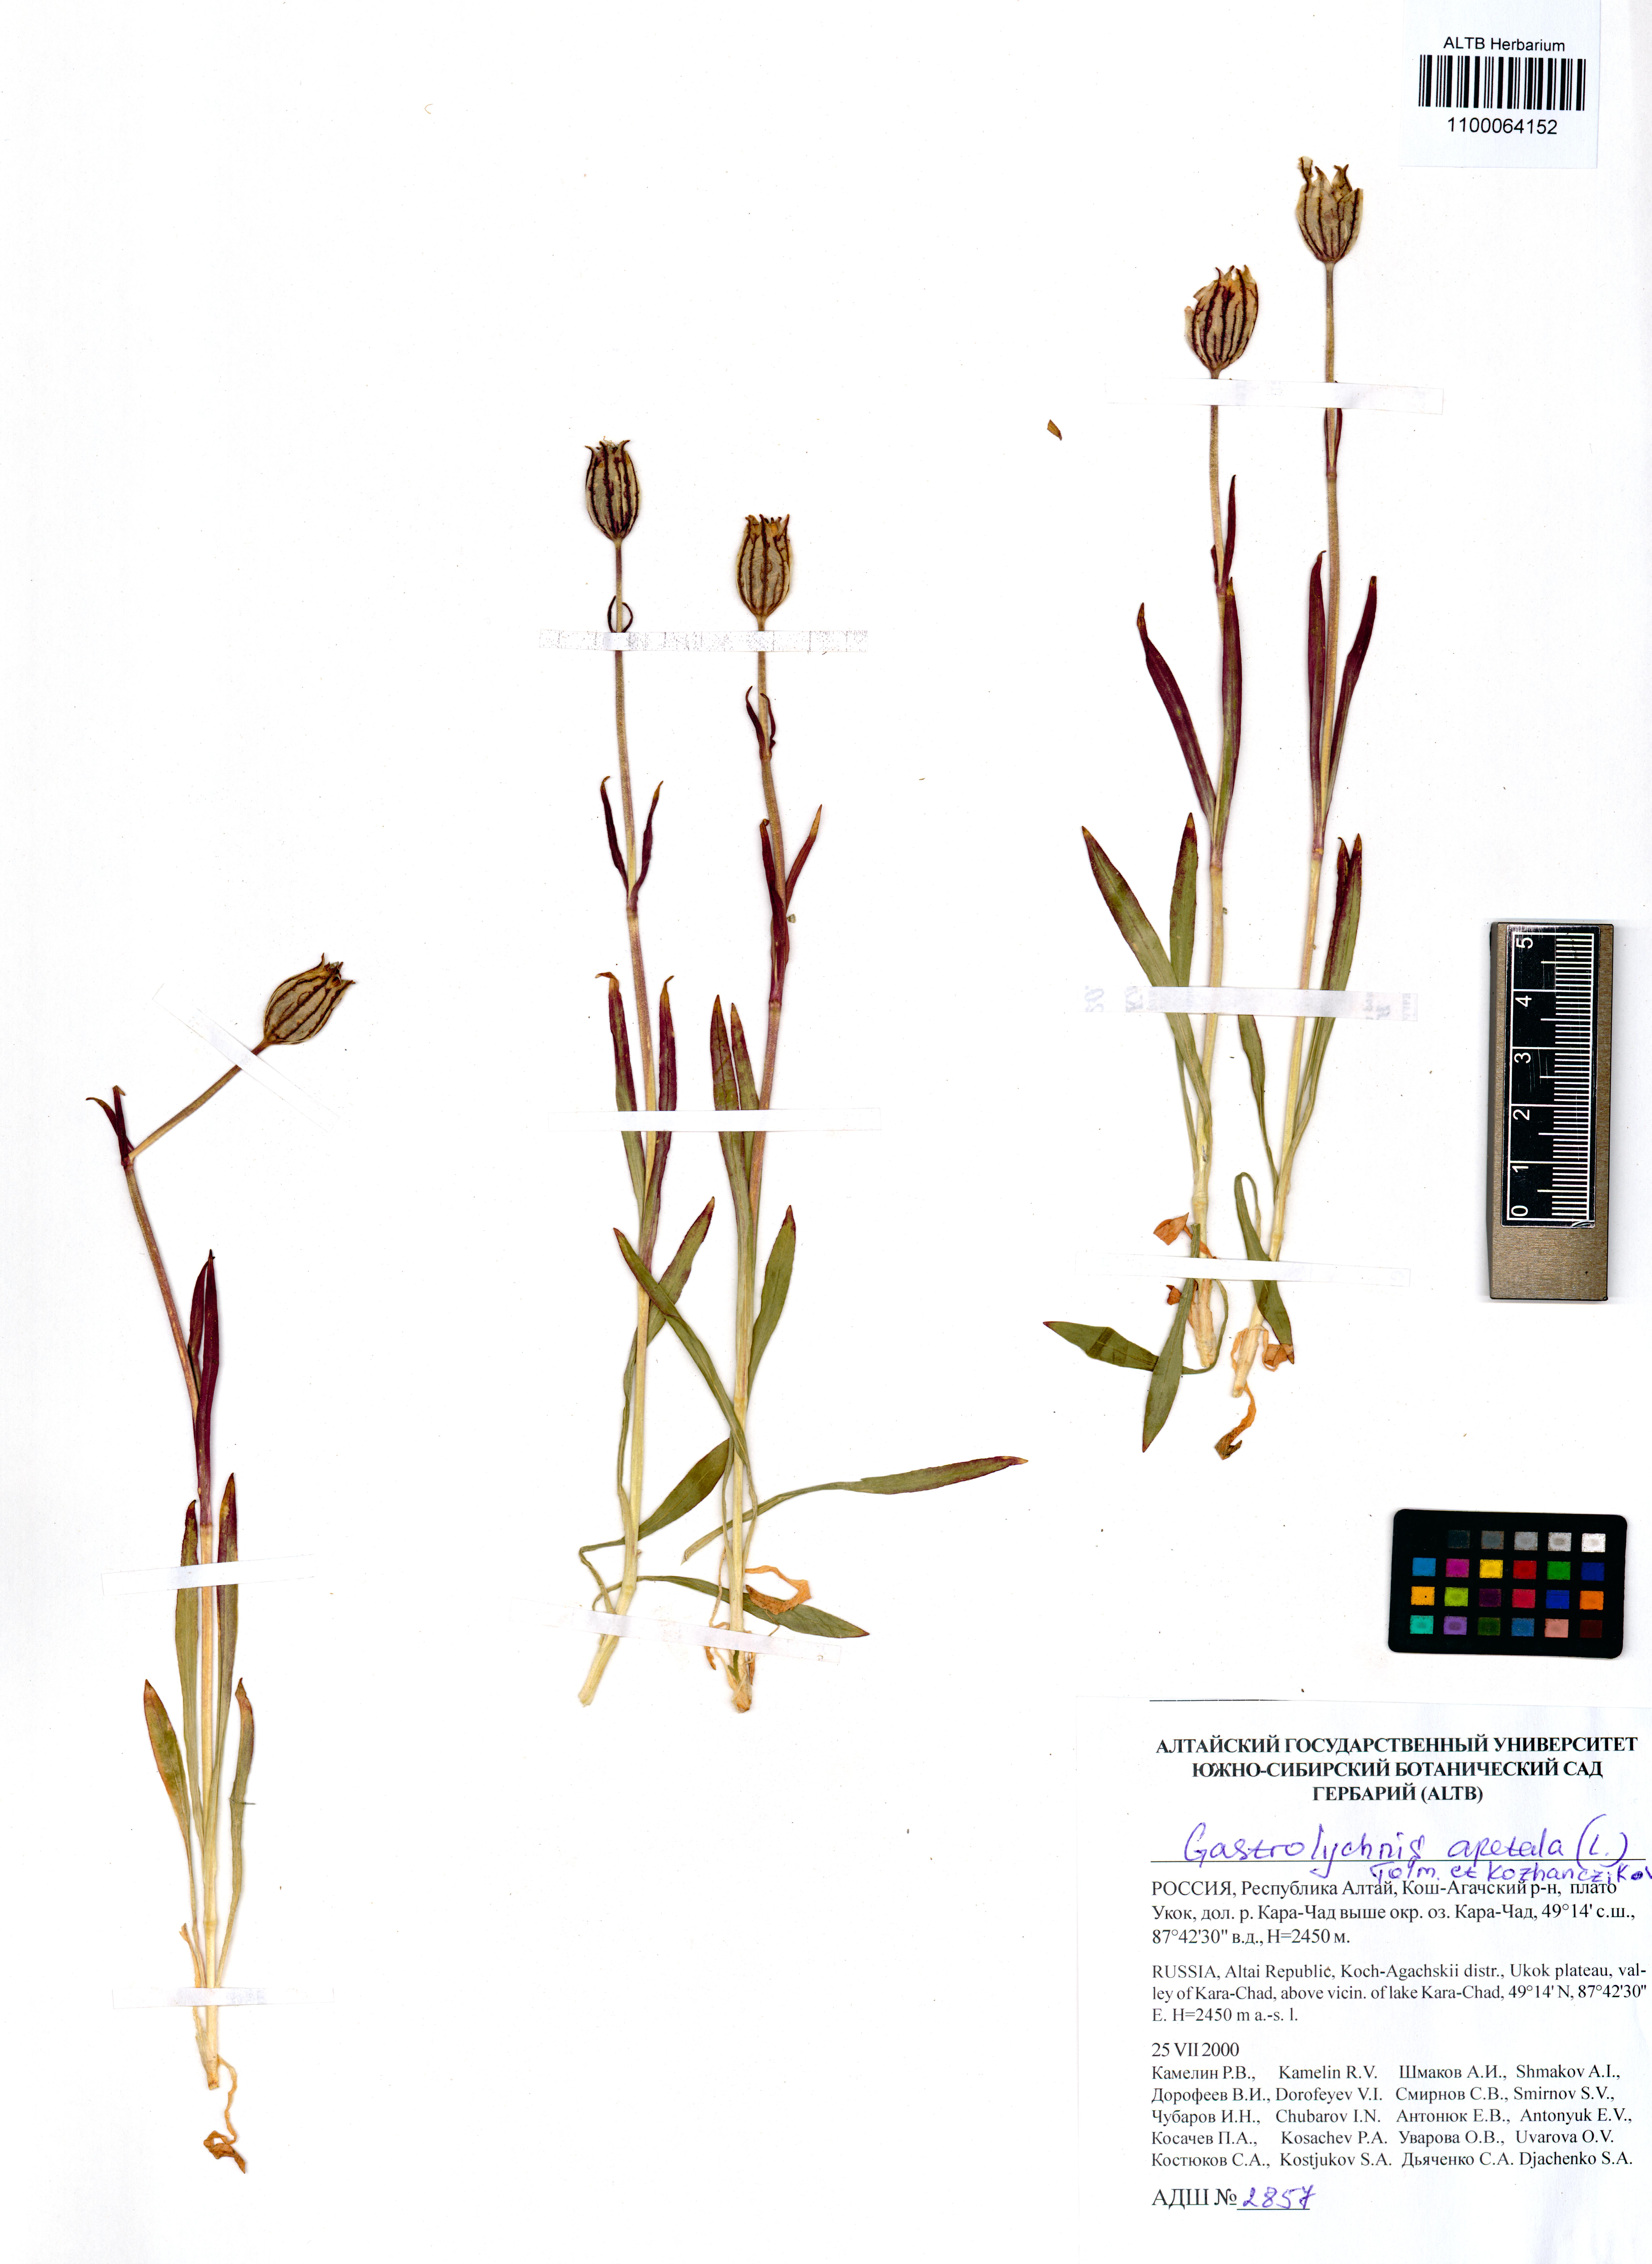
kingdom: Plantae
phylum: Tracheophyta
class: Magnoliopsida
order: Caryophyllales
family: Caryophyllaceae
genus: Silene
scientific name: Silene wahlbergella
